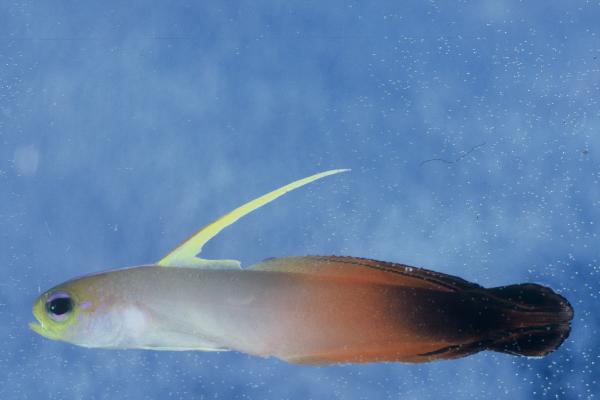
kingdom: Animalia
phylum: Chordata
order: Perciformes
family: Microdesmidae
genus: Nemateleotris
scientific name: Nemateleotris magnifica
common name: Fire goby
